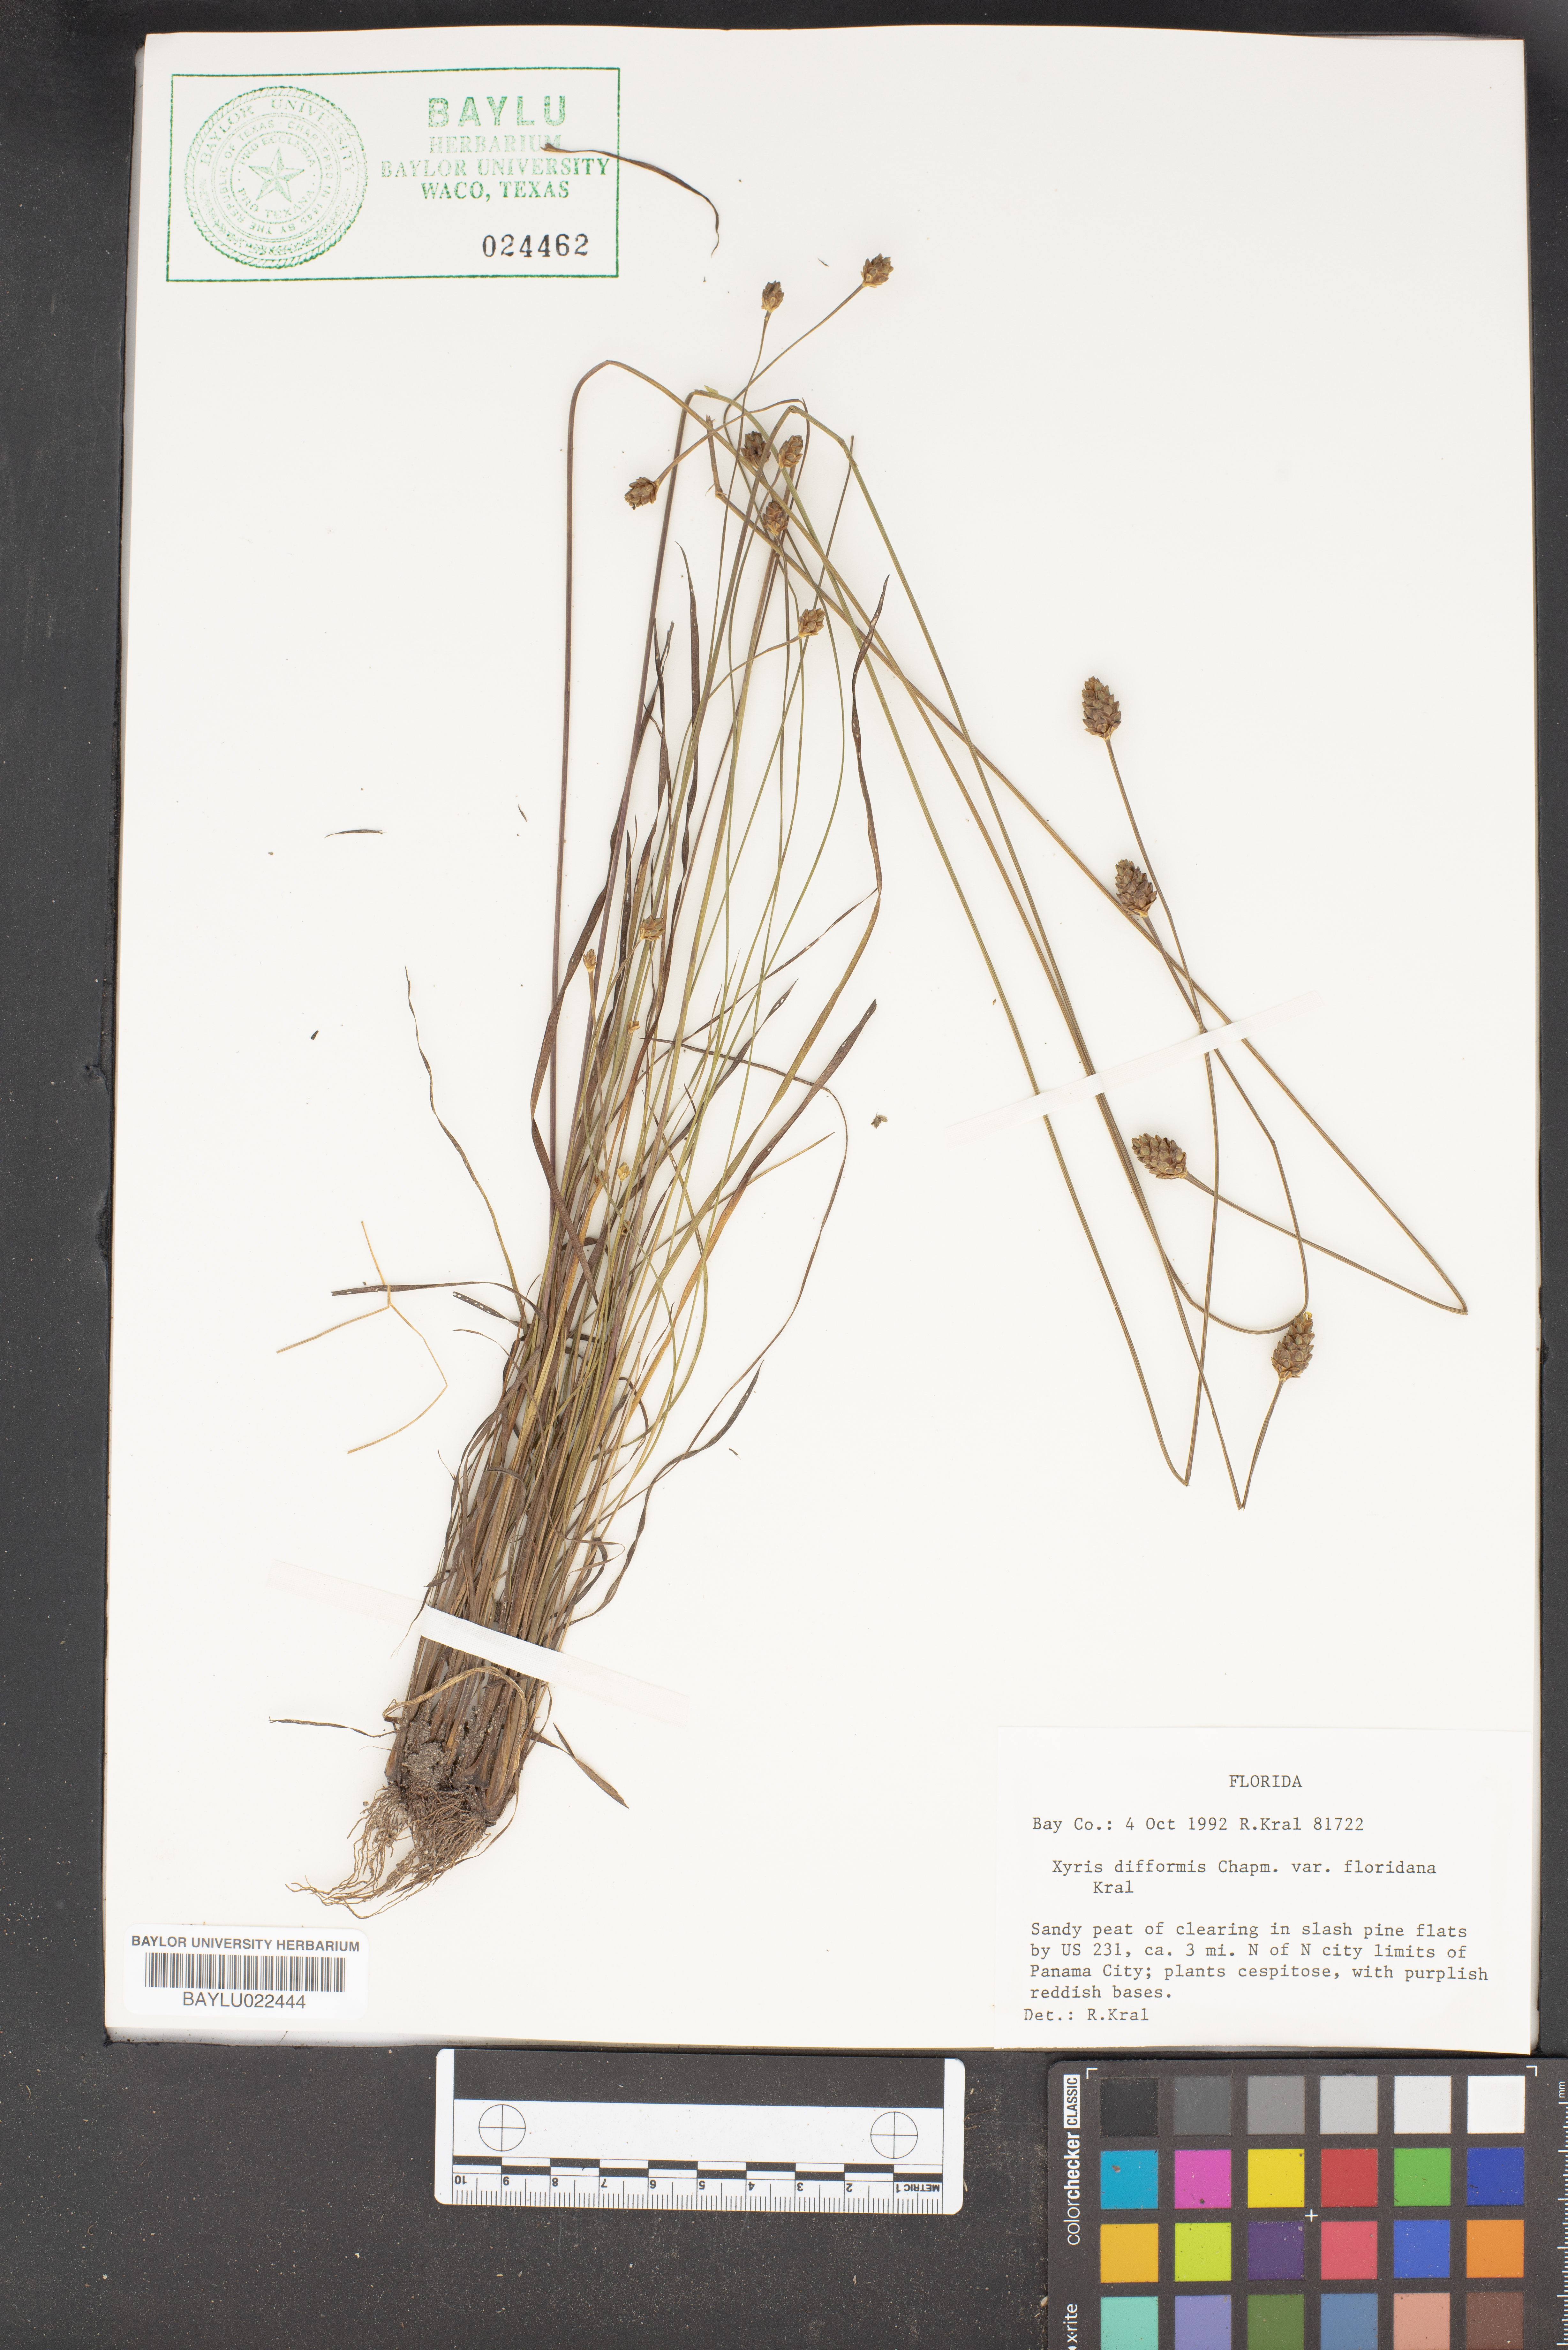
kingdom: Plantae
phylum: Tracheophyta
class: Liliopsida
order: Poales
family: Xyridaceae
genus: Xyris
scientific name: Xyris floridana
